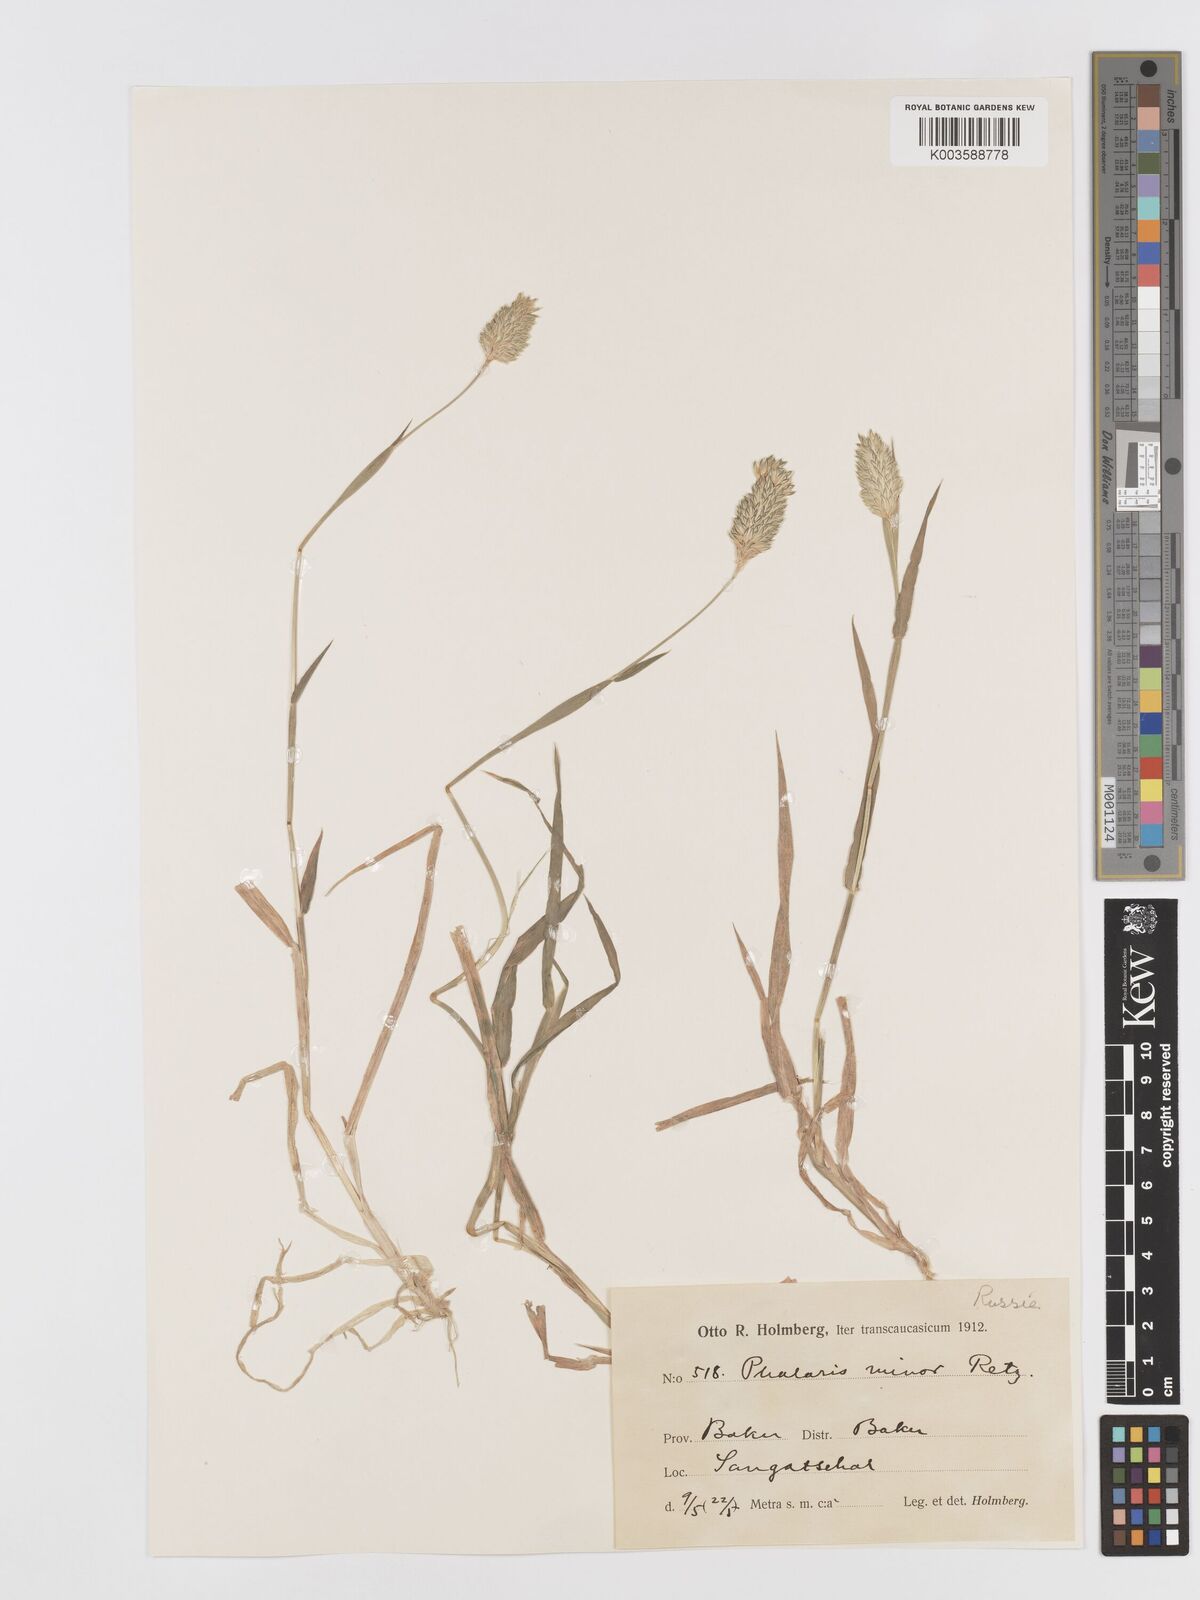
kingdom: Plantae
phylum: Tracheophyta
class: Liliopsida
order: Poales
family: Poaceae
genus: Phalaris
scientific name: Phalaris minor
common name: Littleseed canarygrass
